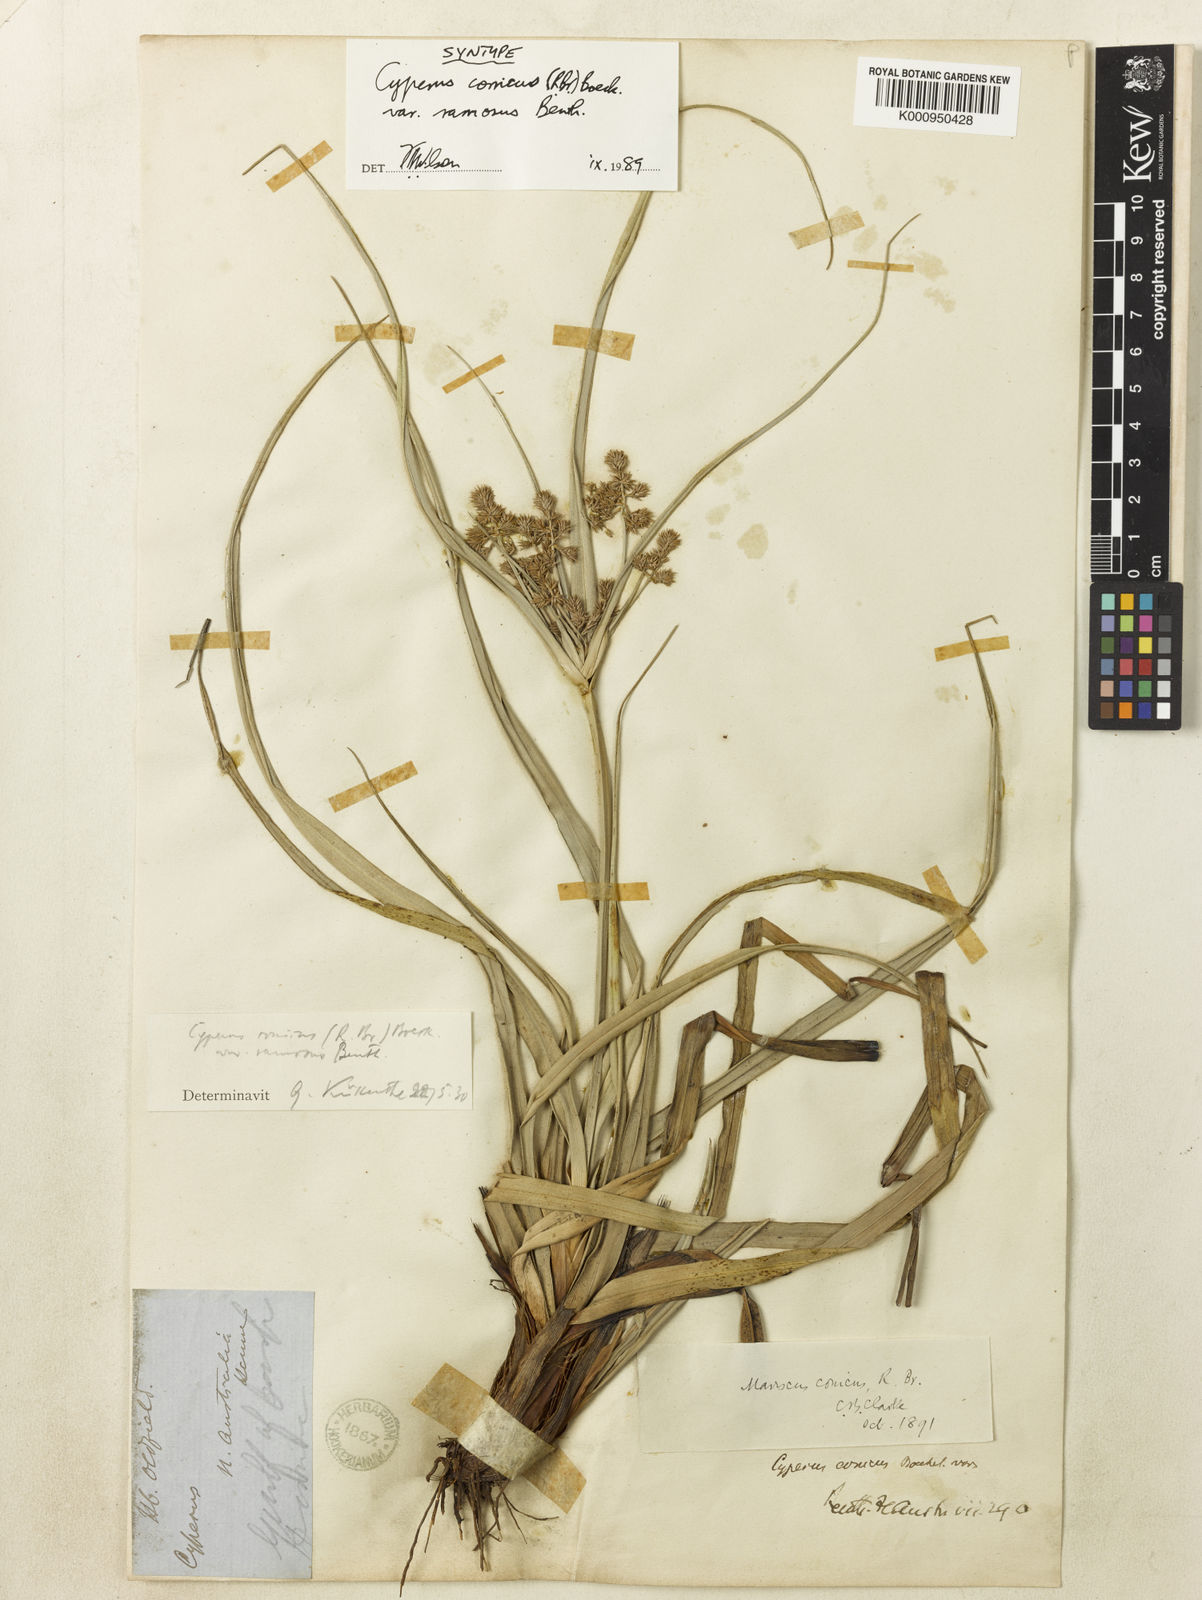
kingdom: Plantae
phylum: Tracheophyta
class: Liliopsida
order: Poales
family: Cyperaceae
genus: Cyperus
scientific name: Cyperus
